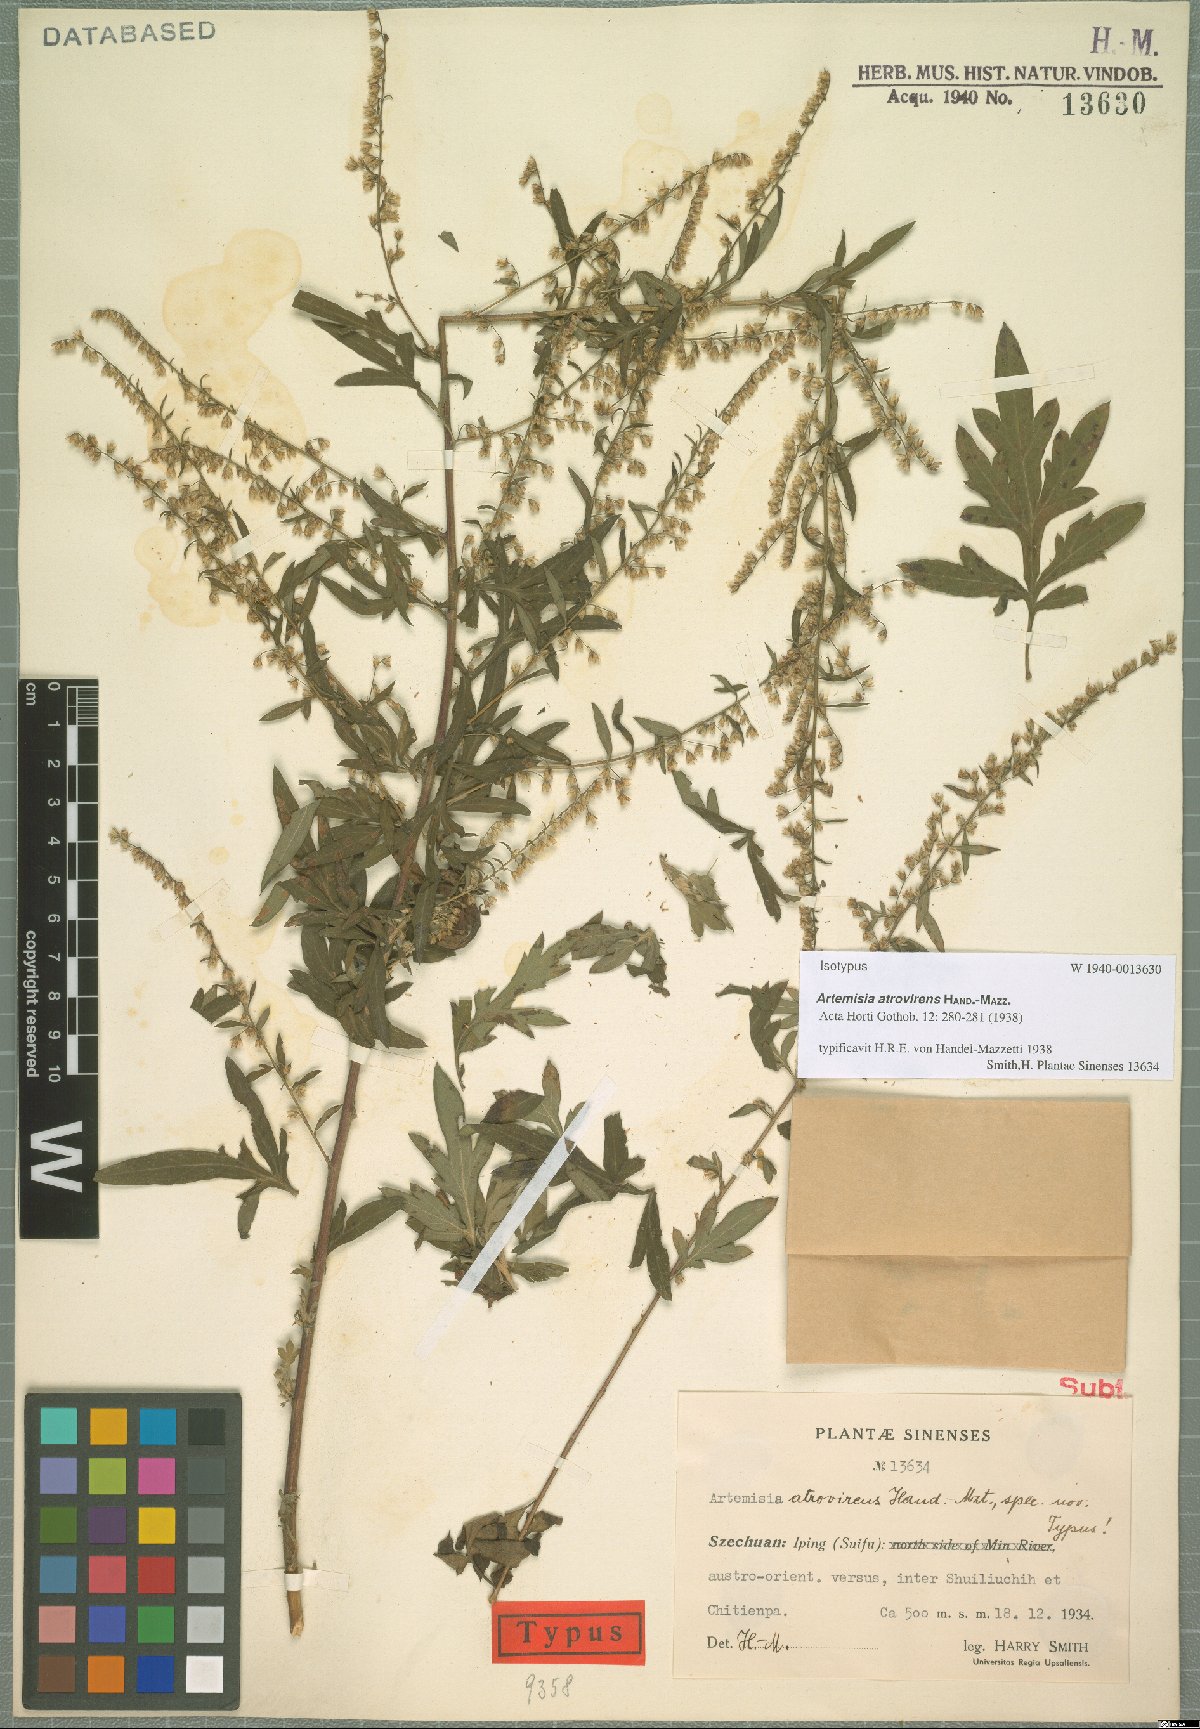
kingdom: Plantae
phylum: Tracheophyta
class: Magnoliopsida
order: Asterales
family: Asteraceae
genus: Artemisia
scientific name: Artemisia atrovirens
